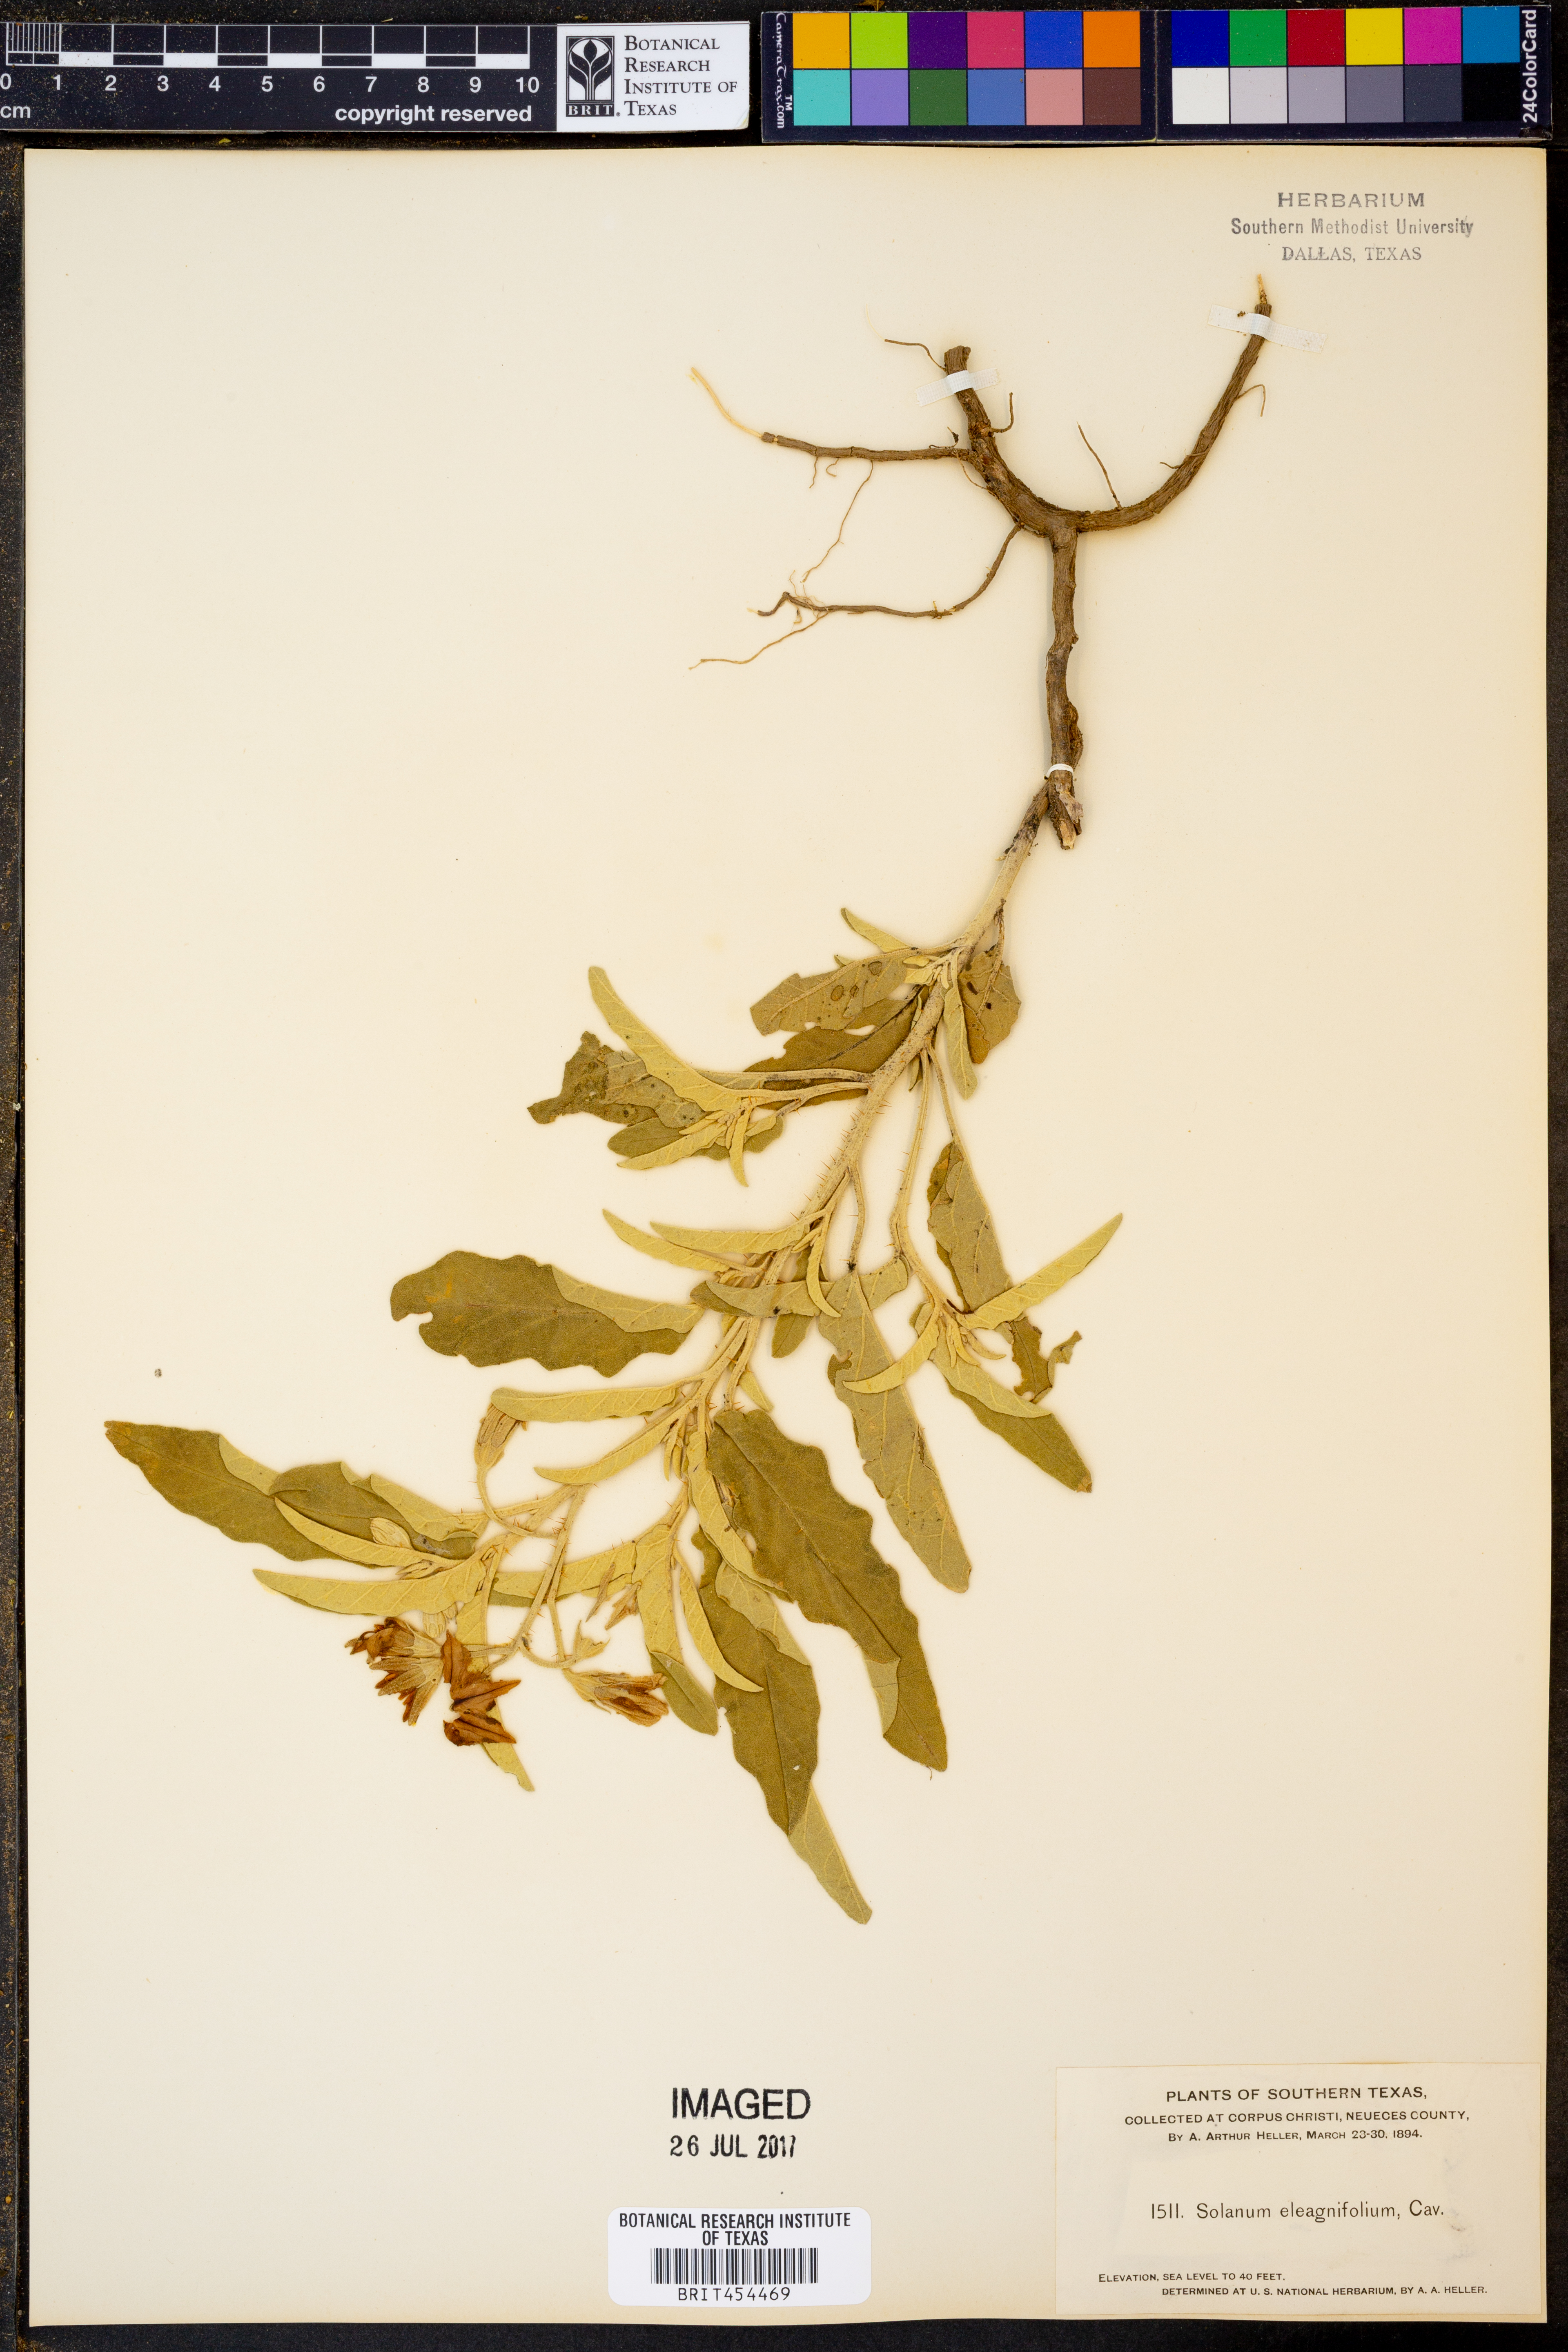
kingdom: Plantae
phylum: Tracheophyta
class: Magnoliopsida
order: Solanales
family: Solanaceae
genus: Solanum
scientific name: Solanum elaeagnifolium
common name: Silverleaf nightshade
